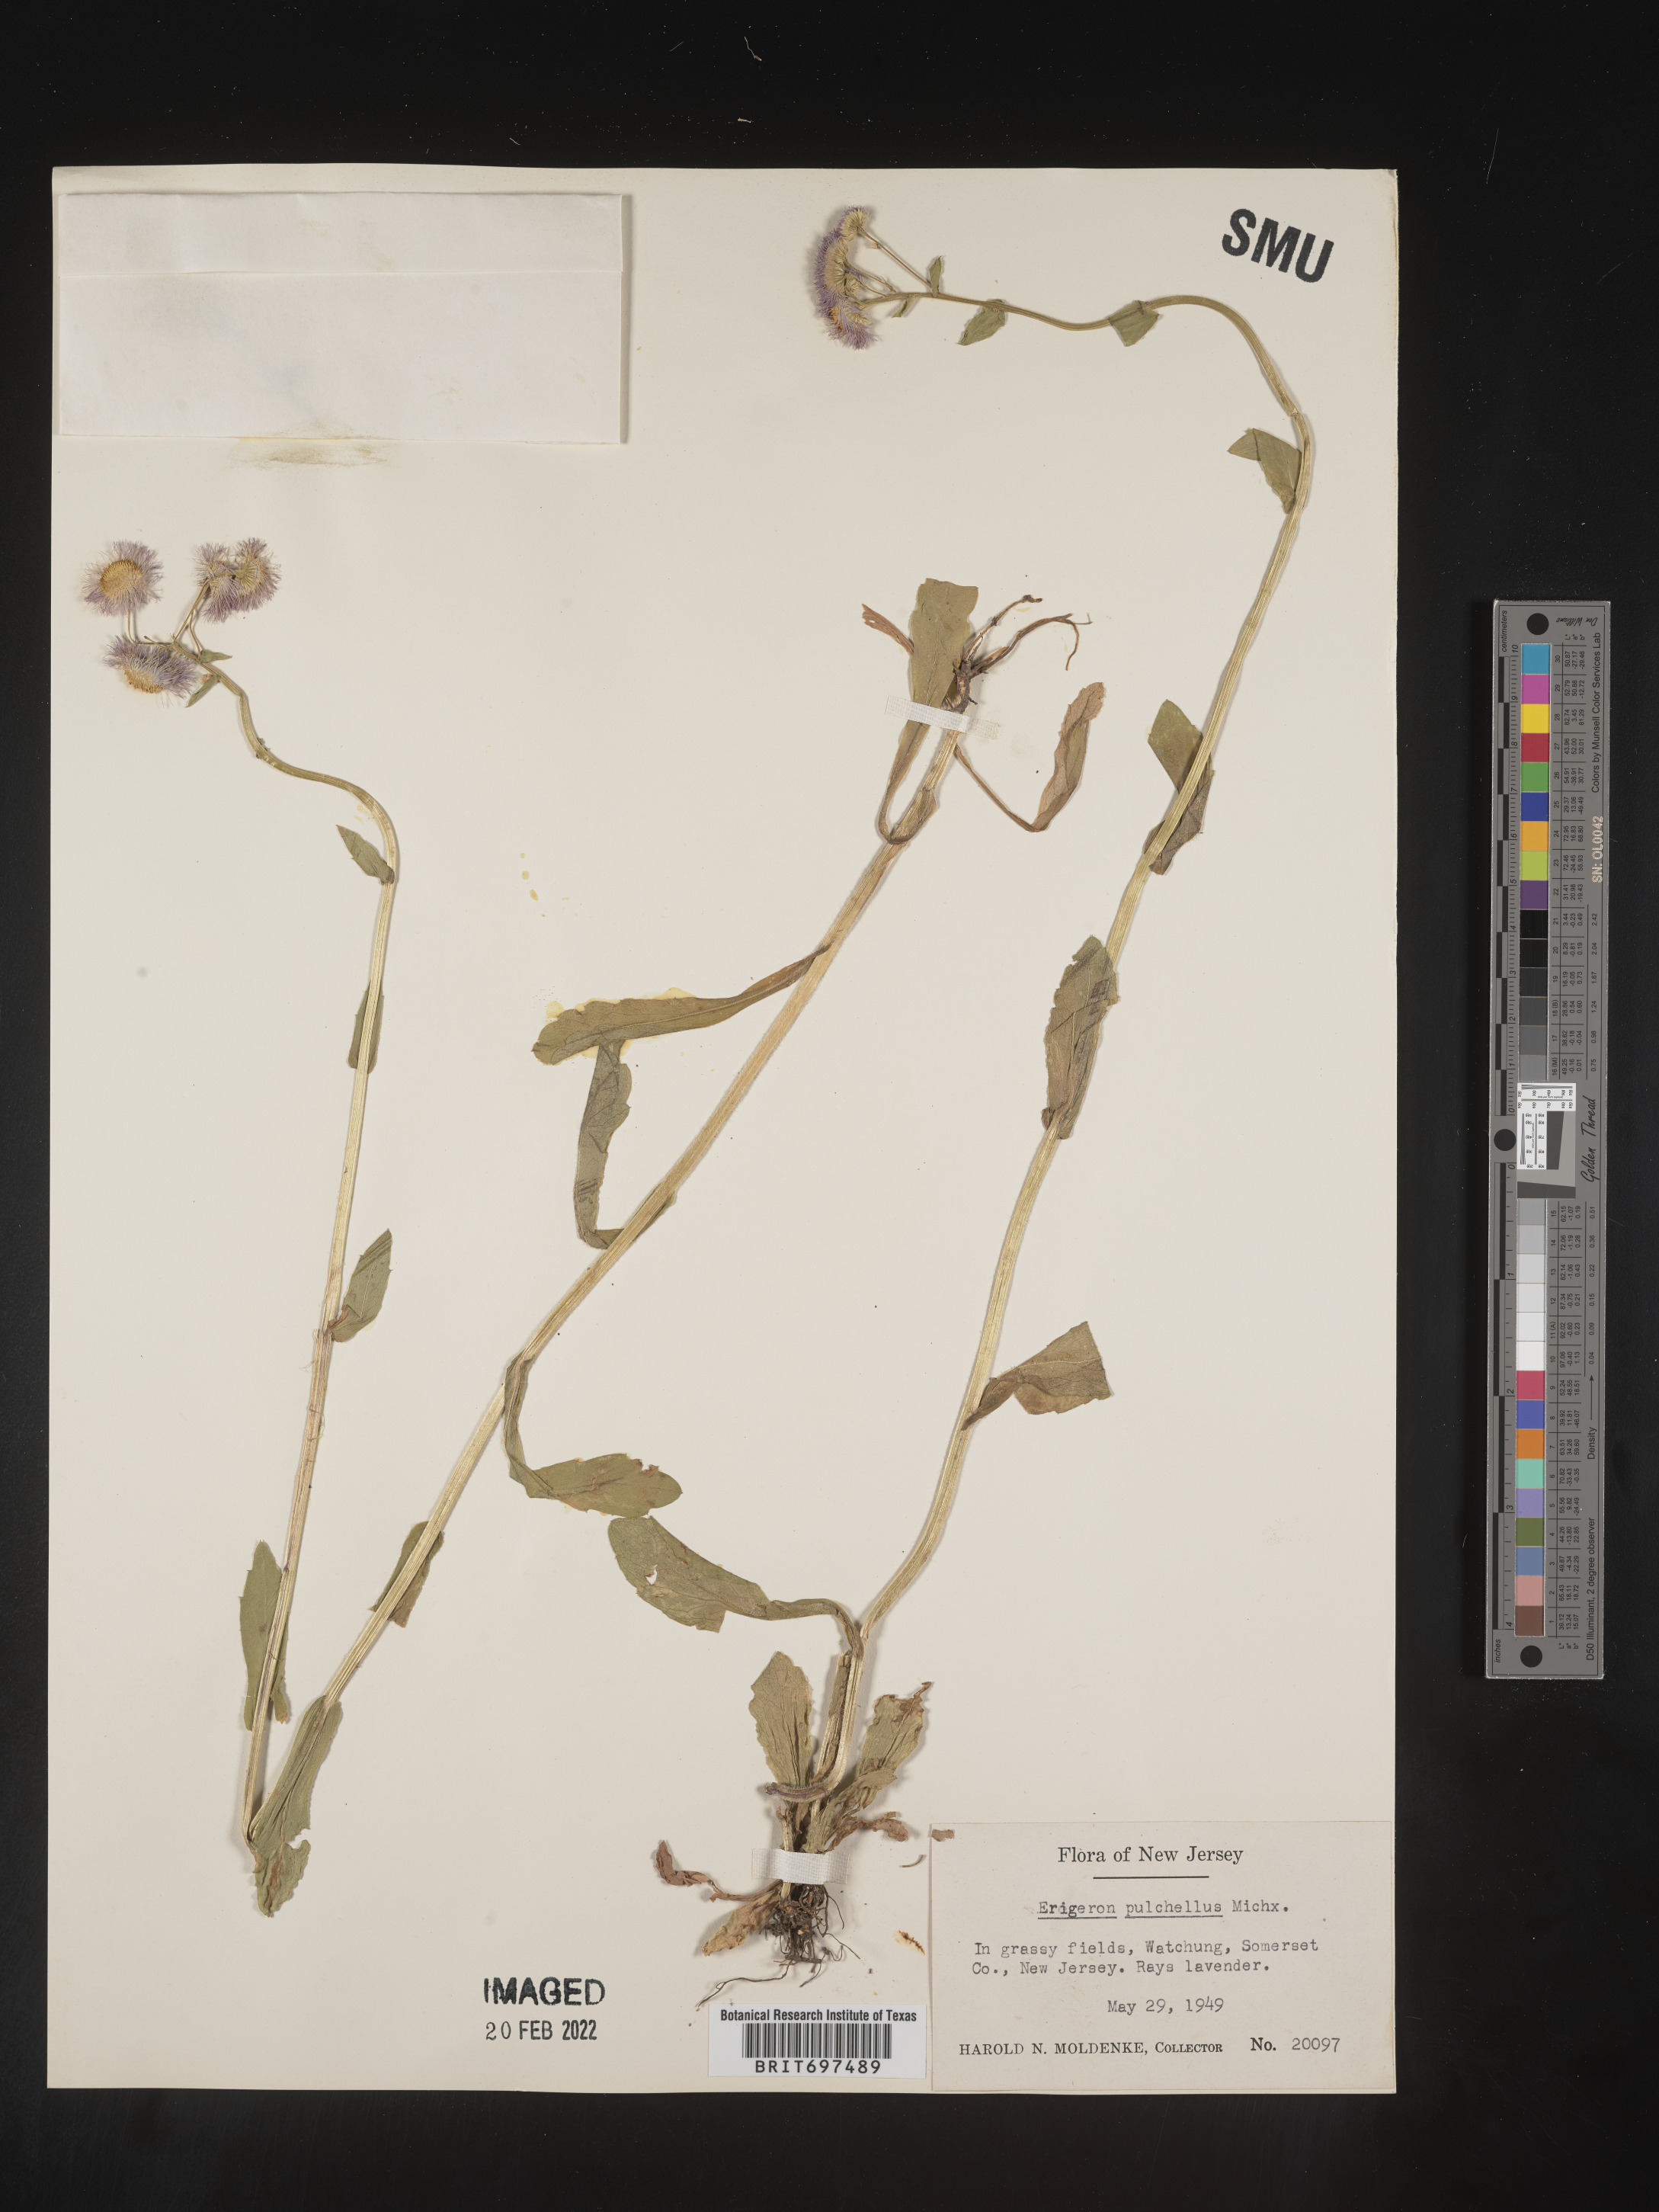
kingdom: Plantae
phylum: Tracheophyta
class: Magnoliopsida
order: Asterales
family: Asteraceae
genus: Erigeron
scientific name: Erigeron philadelphicus
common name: Robin's-plantain
